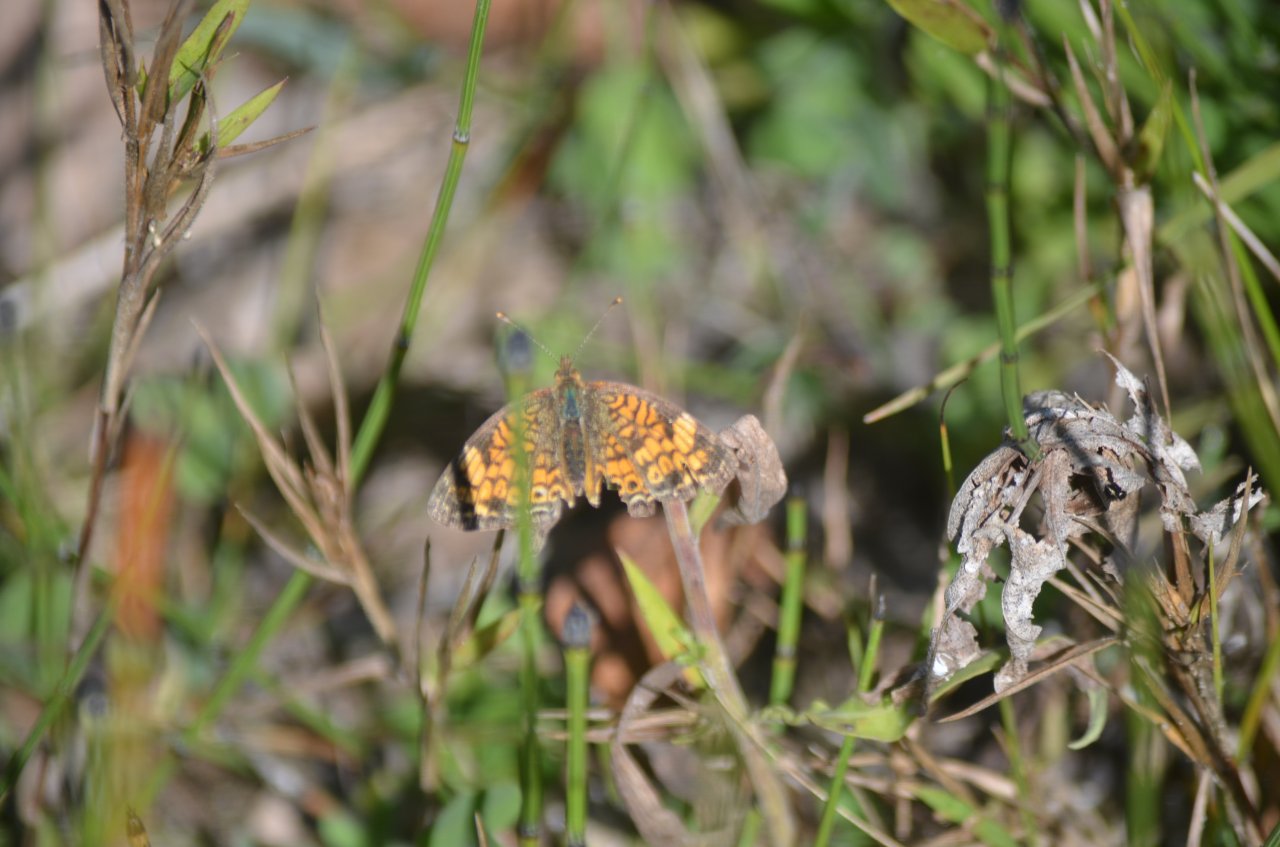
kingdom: Animalia
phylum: Arthropoda
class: Insecta
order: Lepidoptera
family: Nymphalidae
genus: Phyciodes
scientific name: Phyciodes tharos
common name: Northern Crescent
